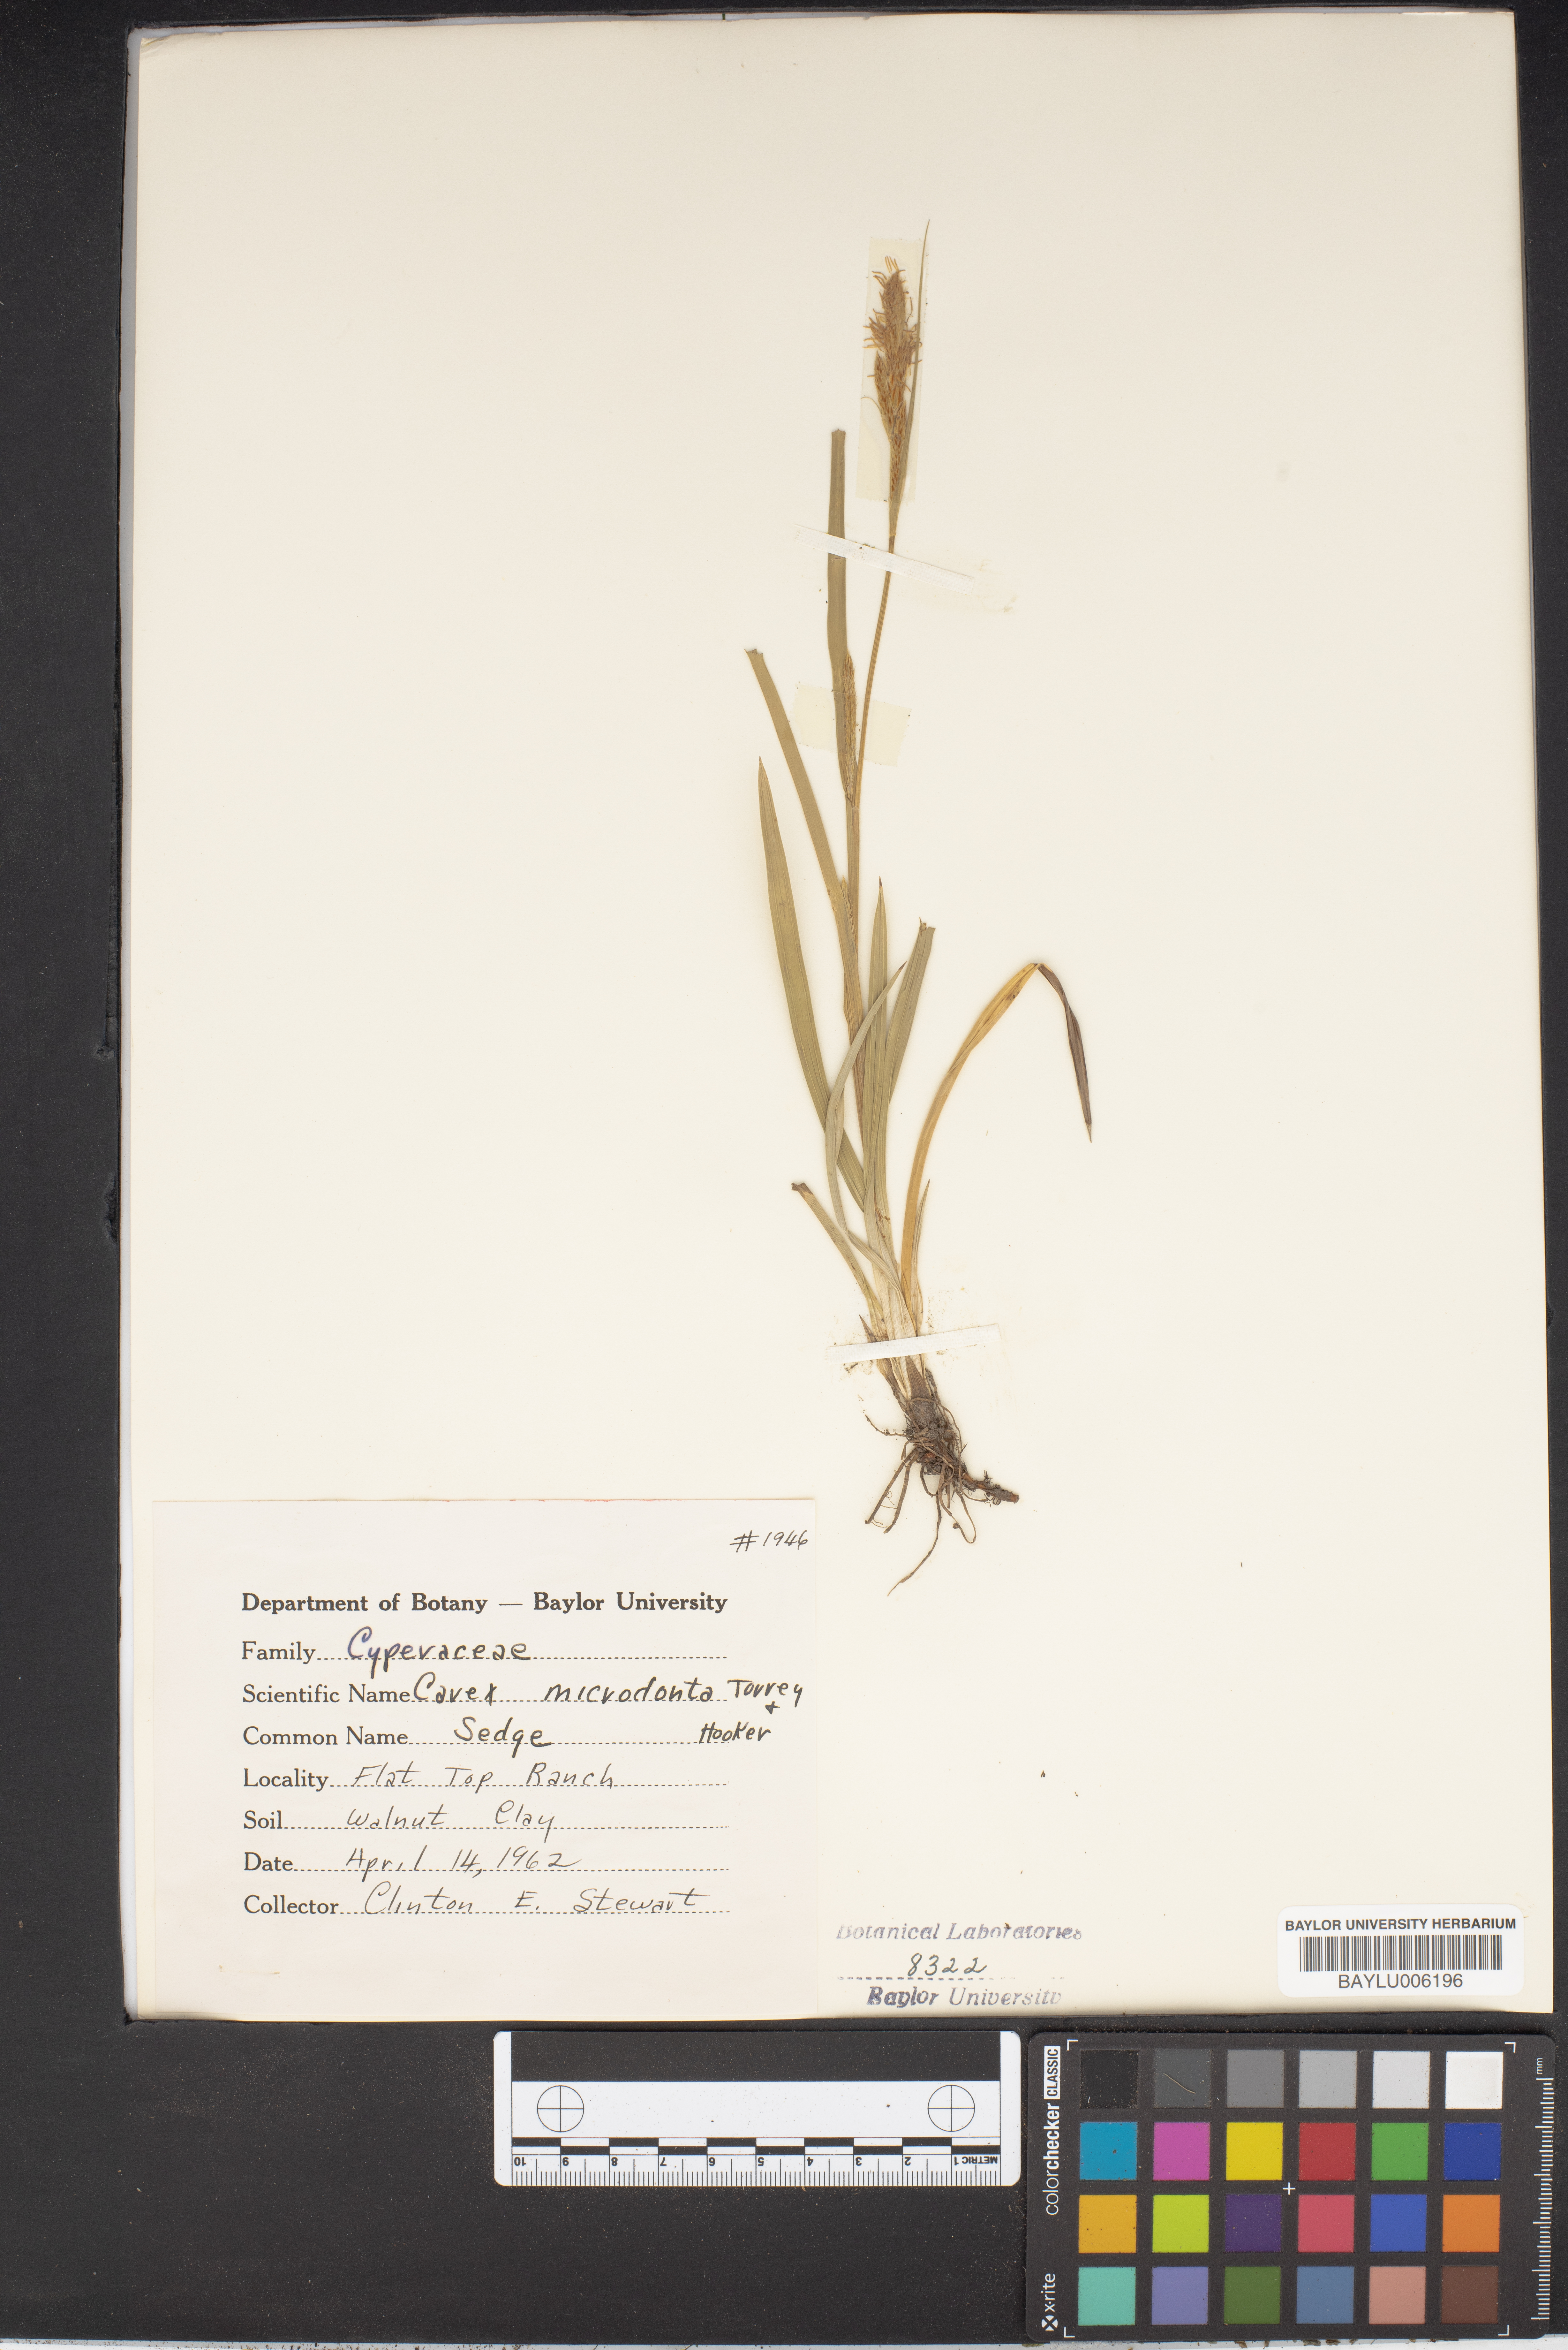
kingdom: Plantae
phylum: Tracheophyta
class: Liliopsida
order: Poales
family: Cyperaceae
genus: Carex
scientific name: Carex microdonta
